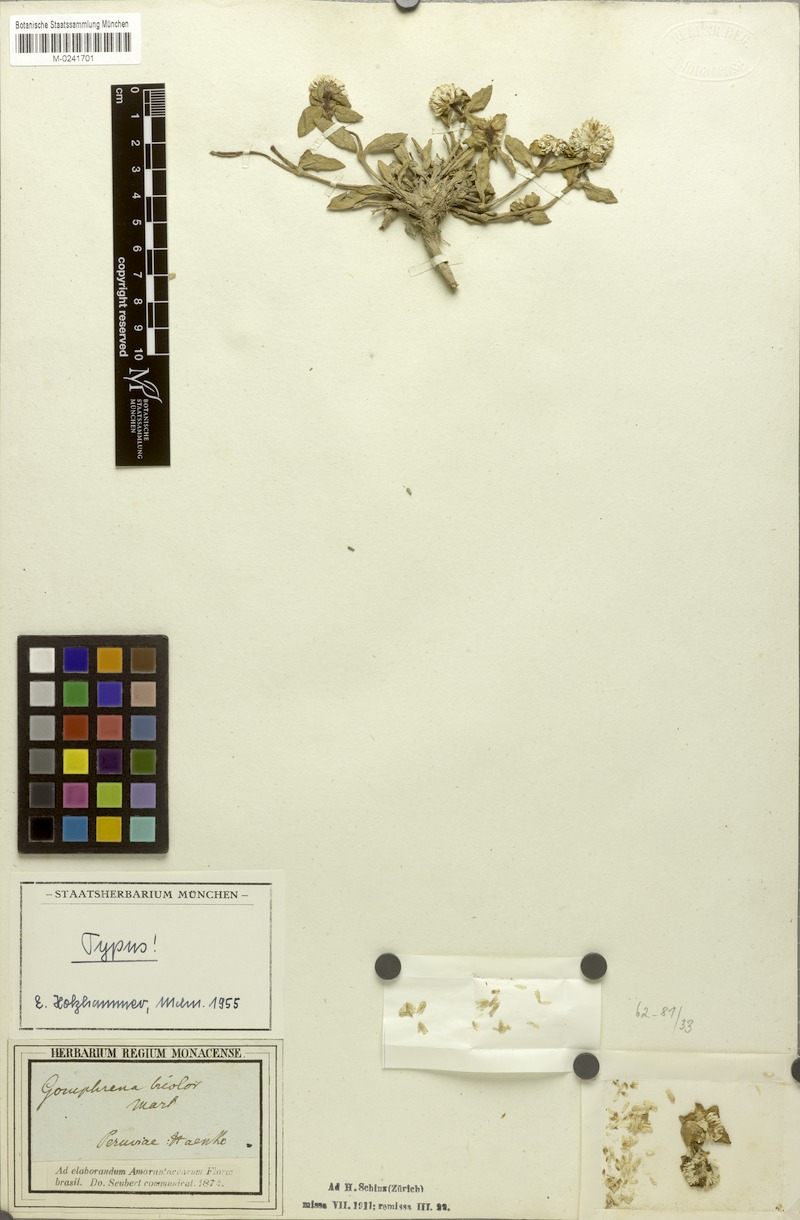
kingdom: Plantae
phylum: Tracheophyta
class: Magnoliopsida
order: Caryophyllales
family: Amaranthaceae
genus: Gomphrena
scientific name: Gomphrena bicolor
